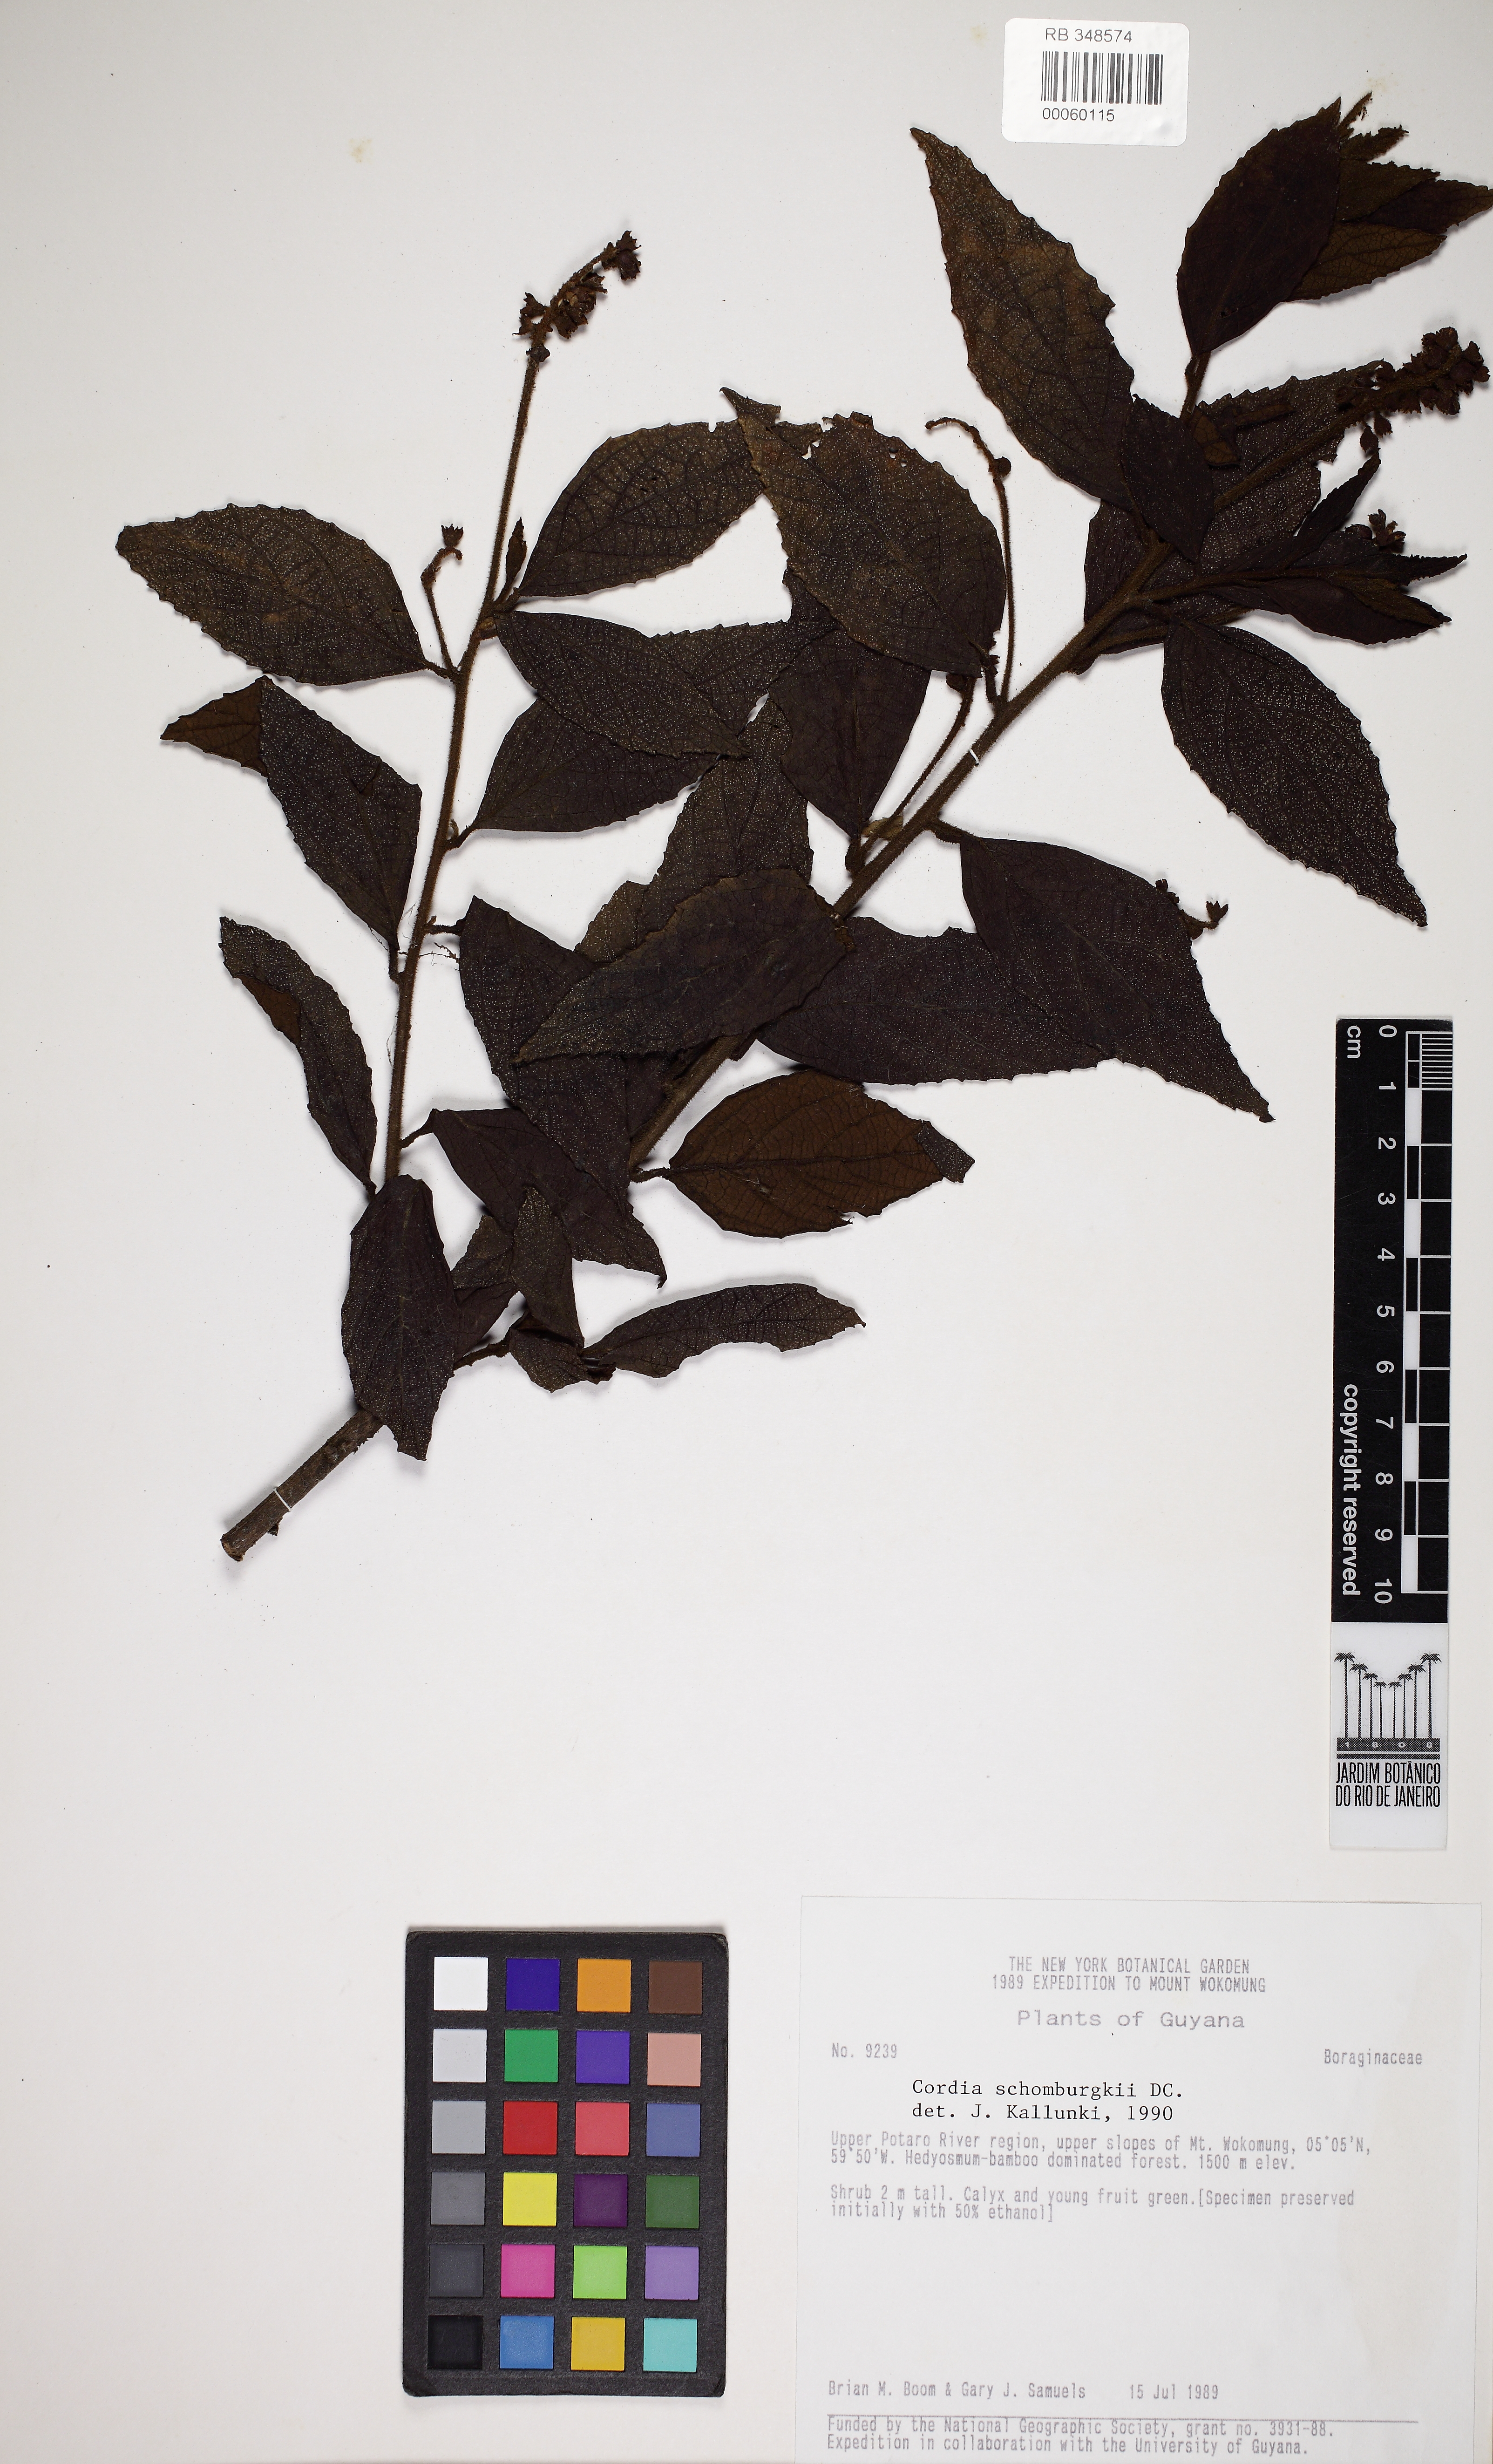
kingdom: Plantae
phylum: Tracheophyta
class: Magnoliopsida
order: Boraginales
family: Cordiaceae
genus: Varronia
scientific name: Varronia schomburgkii
